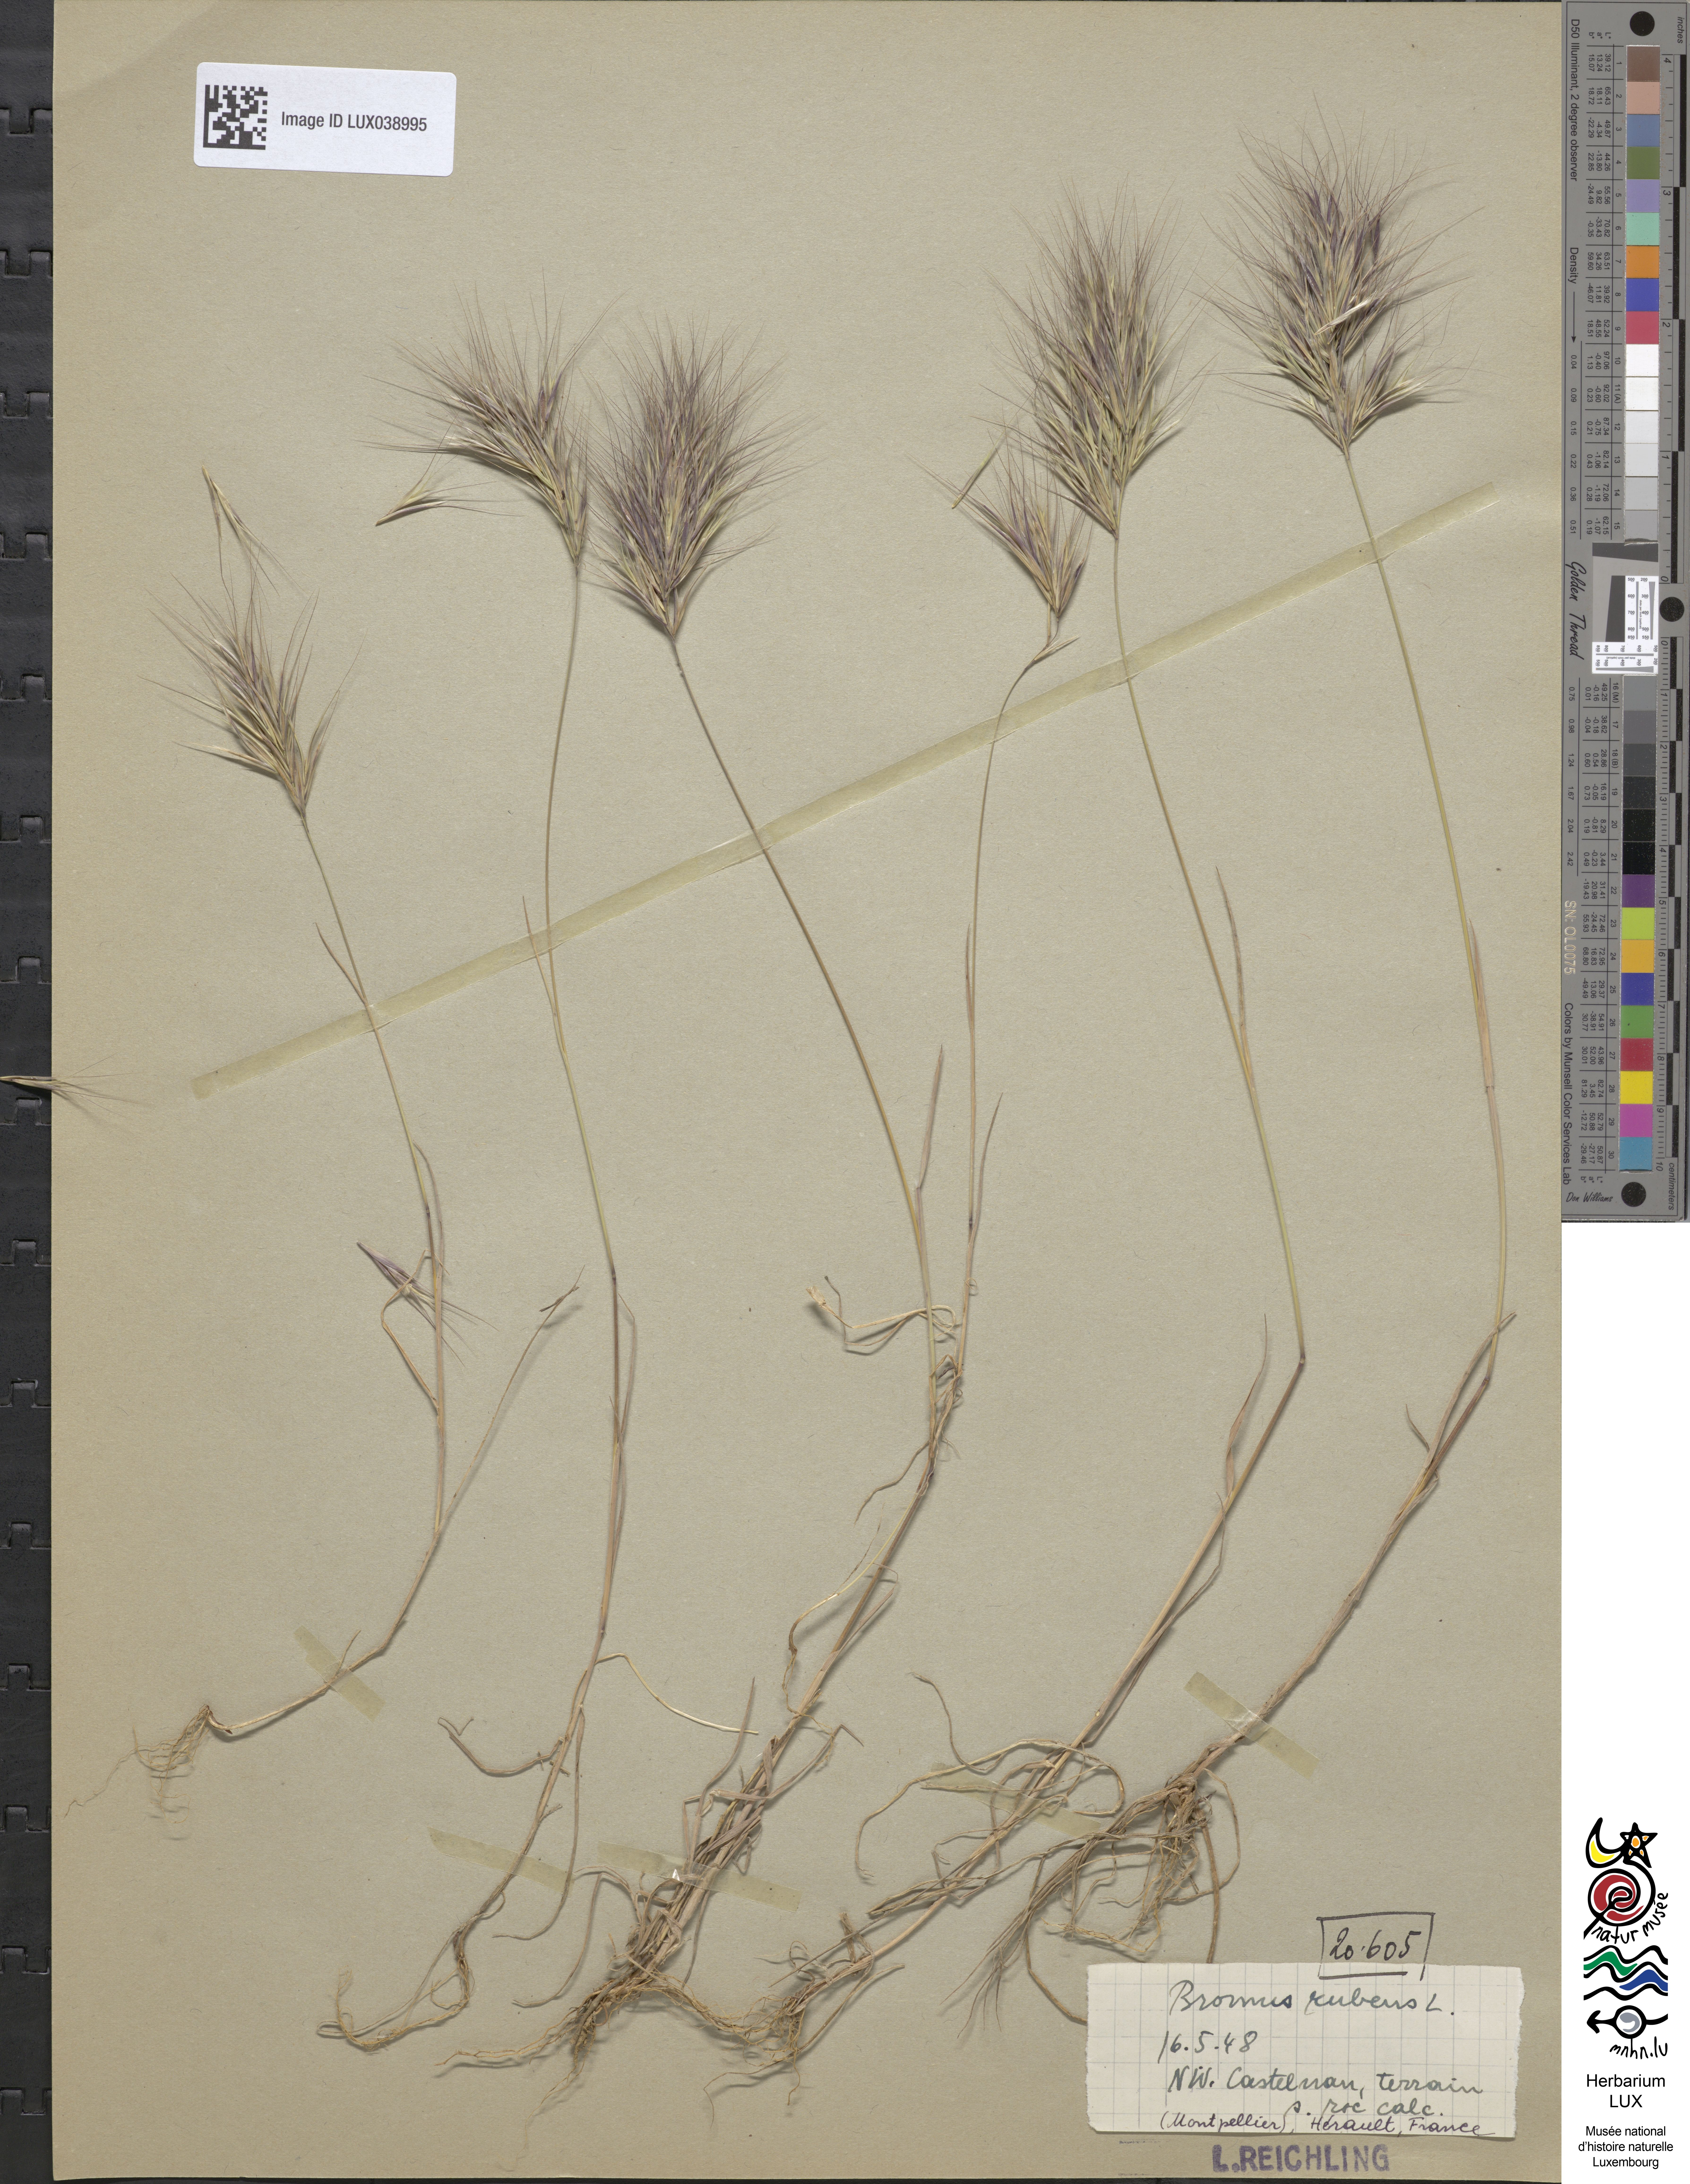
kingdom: Plantae
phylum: Tracheophyta
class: Liliopsida
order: Poales
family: Poaceae
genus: Bromus
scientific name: Bromus rubens
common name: Red brome
